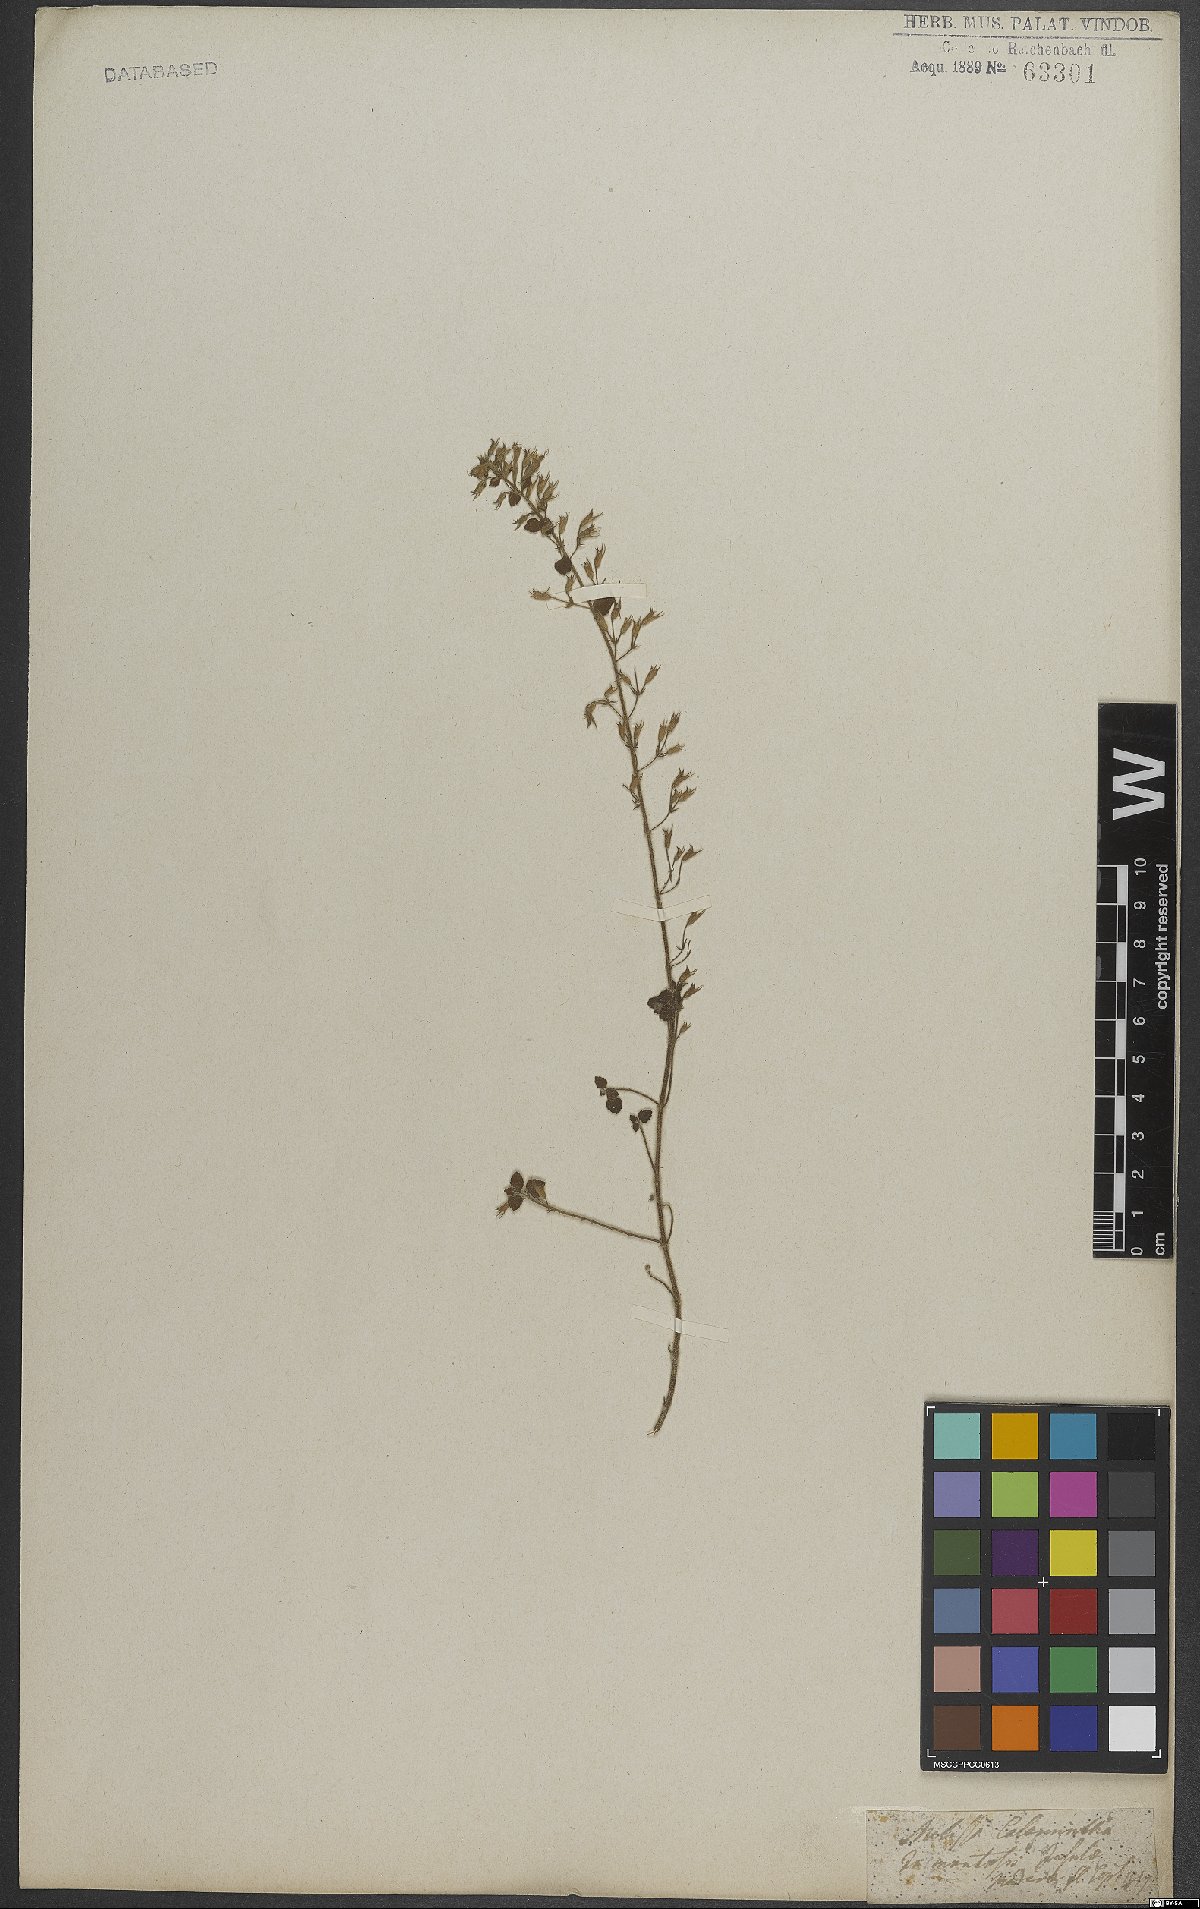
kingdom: Plantae
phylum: Tracheophyta
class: Magnoliopsida
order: Lamiales
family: Lamiaceae
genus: Clinopodium
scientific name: Clinopodium nepeta
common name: Lesser calamint
